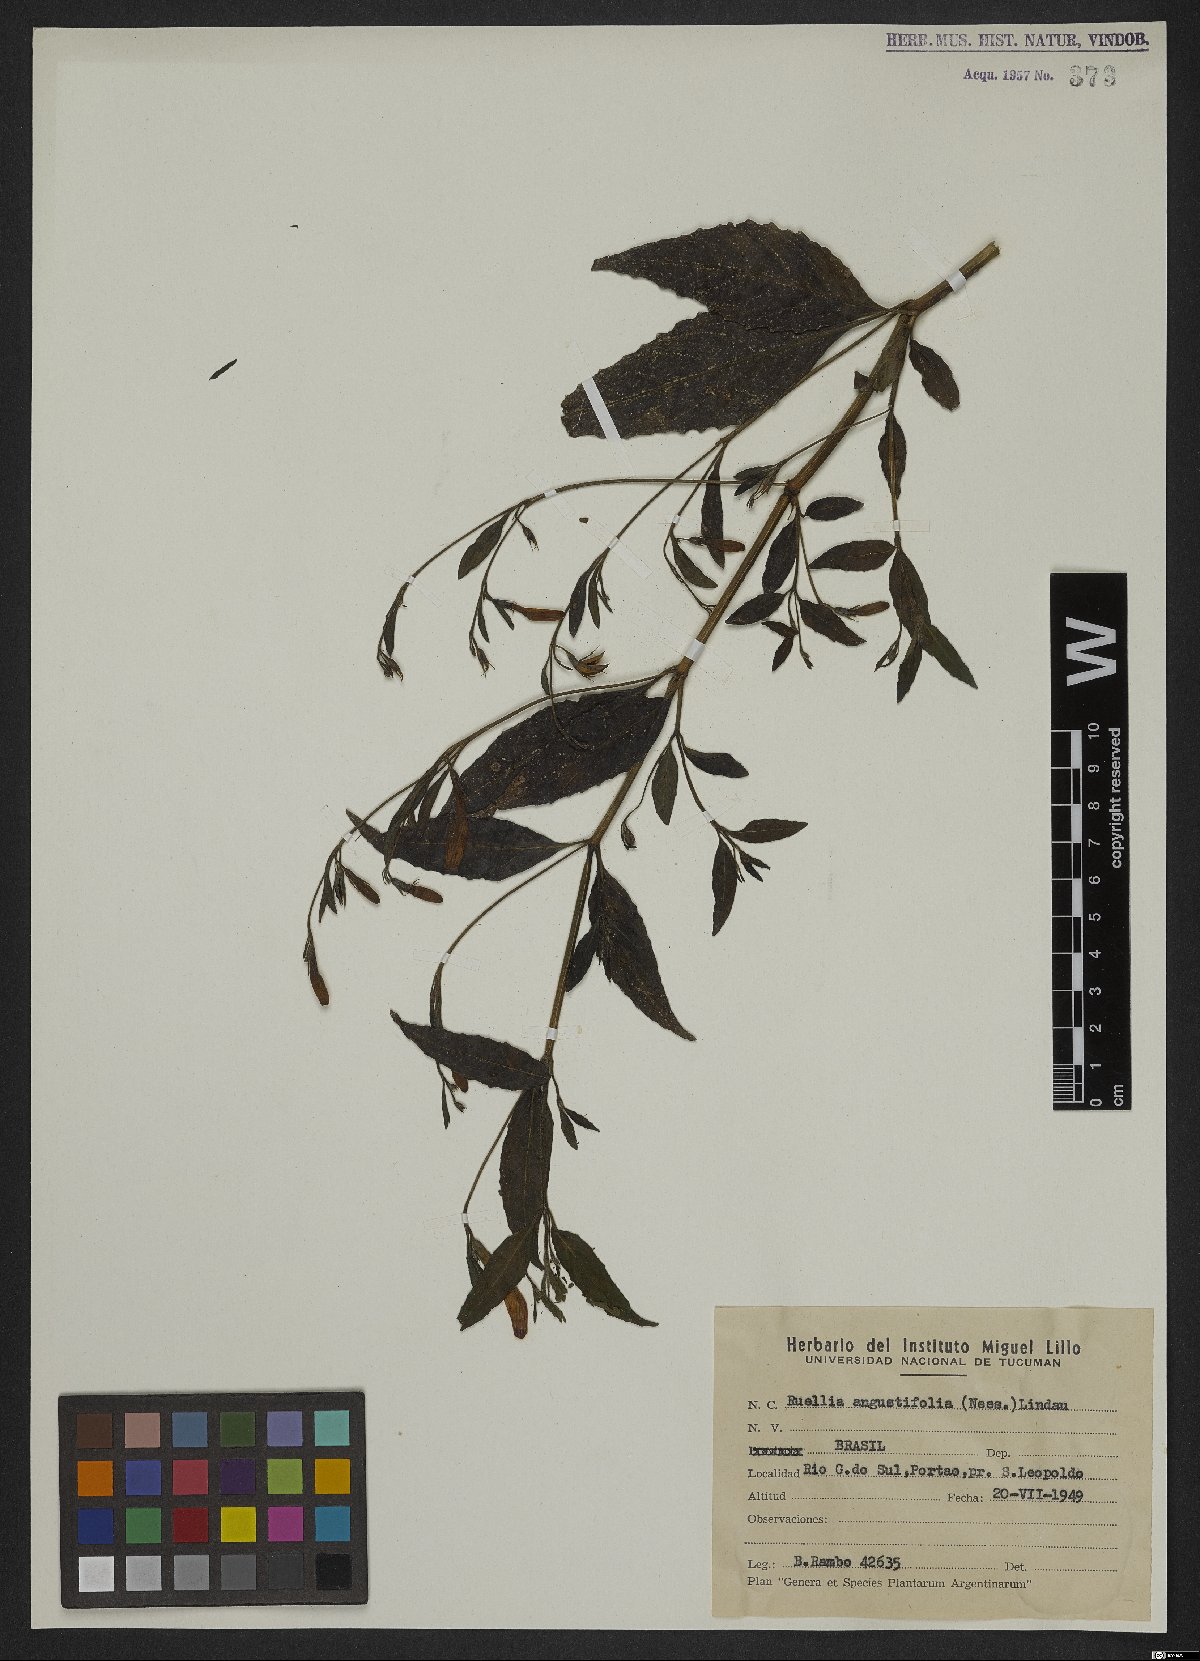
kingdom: Plantae
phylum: Tracheophyta
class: Magnoliopsida
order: Lamiales
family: Acanthaceae
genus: Ruellia
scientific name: Ruellia simplex
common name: Softseed wild petunia
